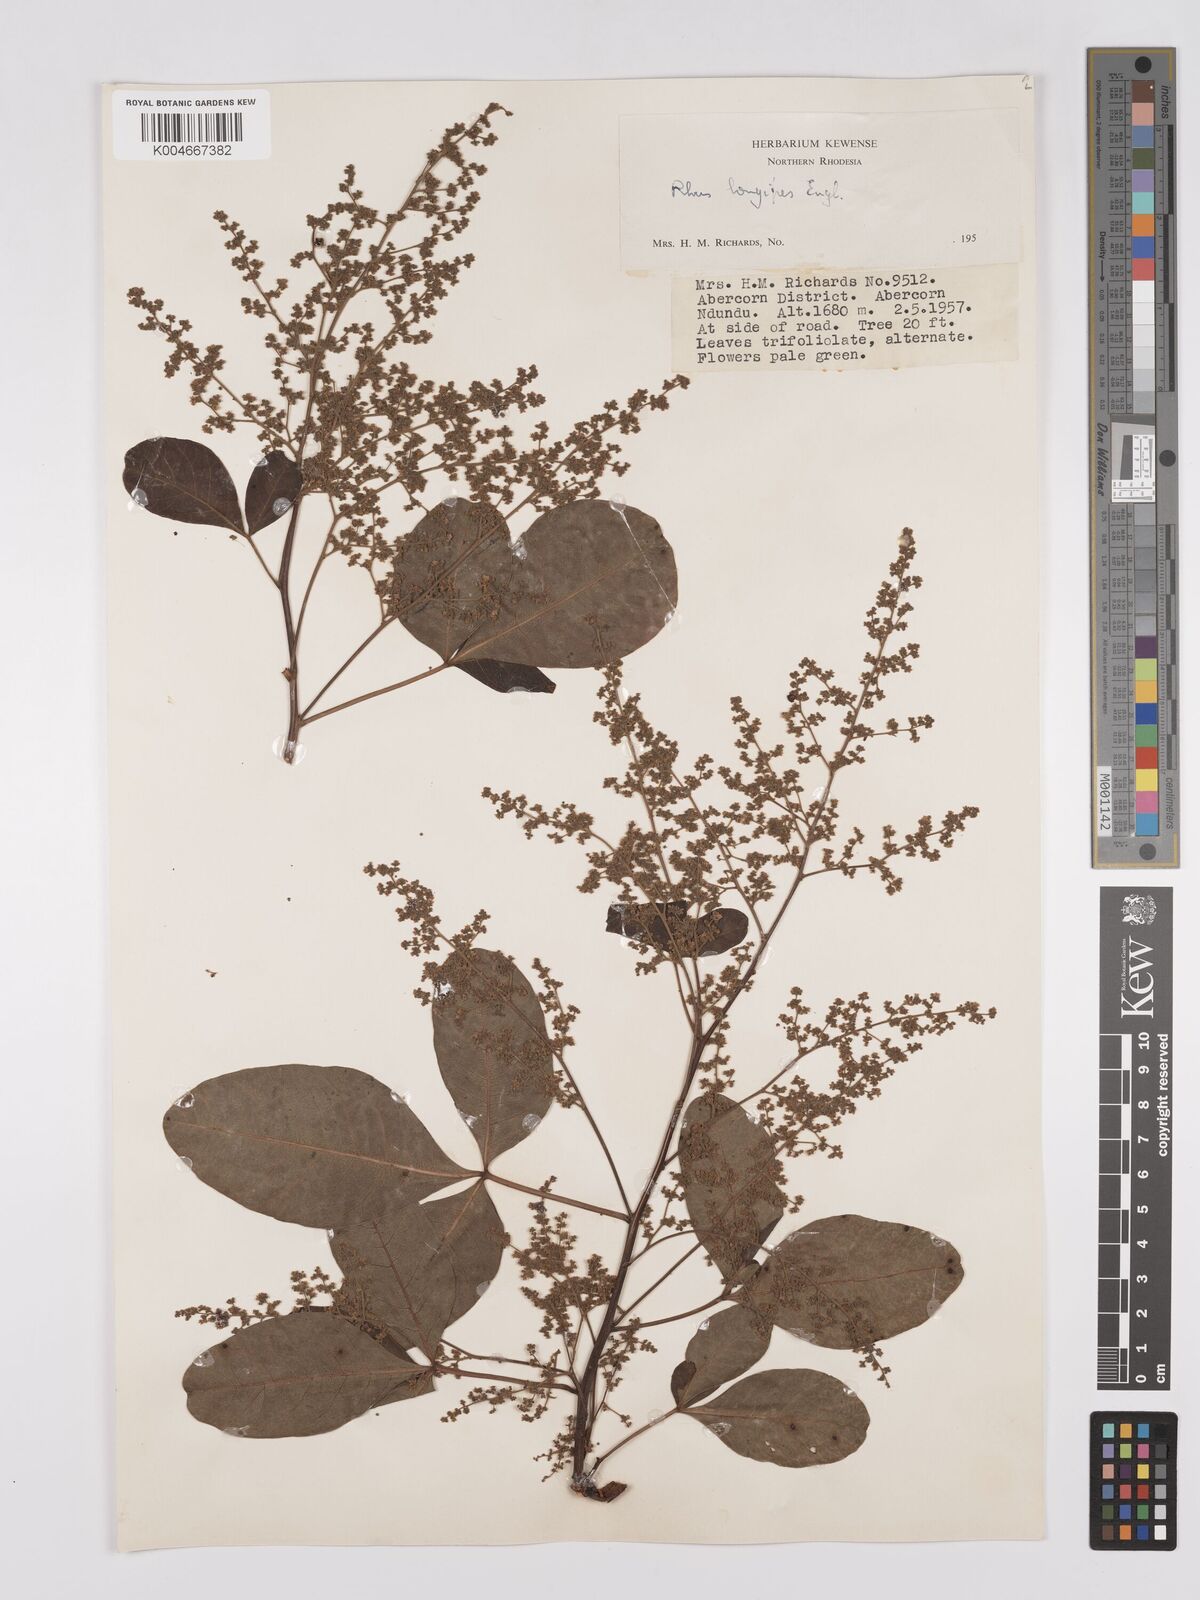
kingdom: Plantae
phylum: Tracheophyta
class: Magnoliopsida
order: Sapindales
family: Anacardiaceae
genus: Searsia
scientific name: Searsia longipes
